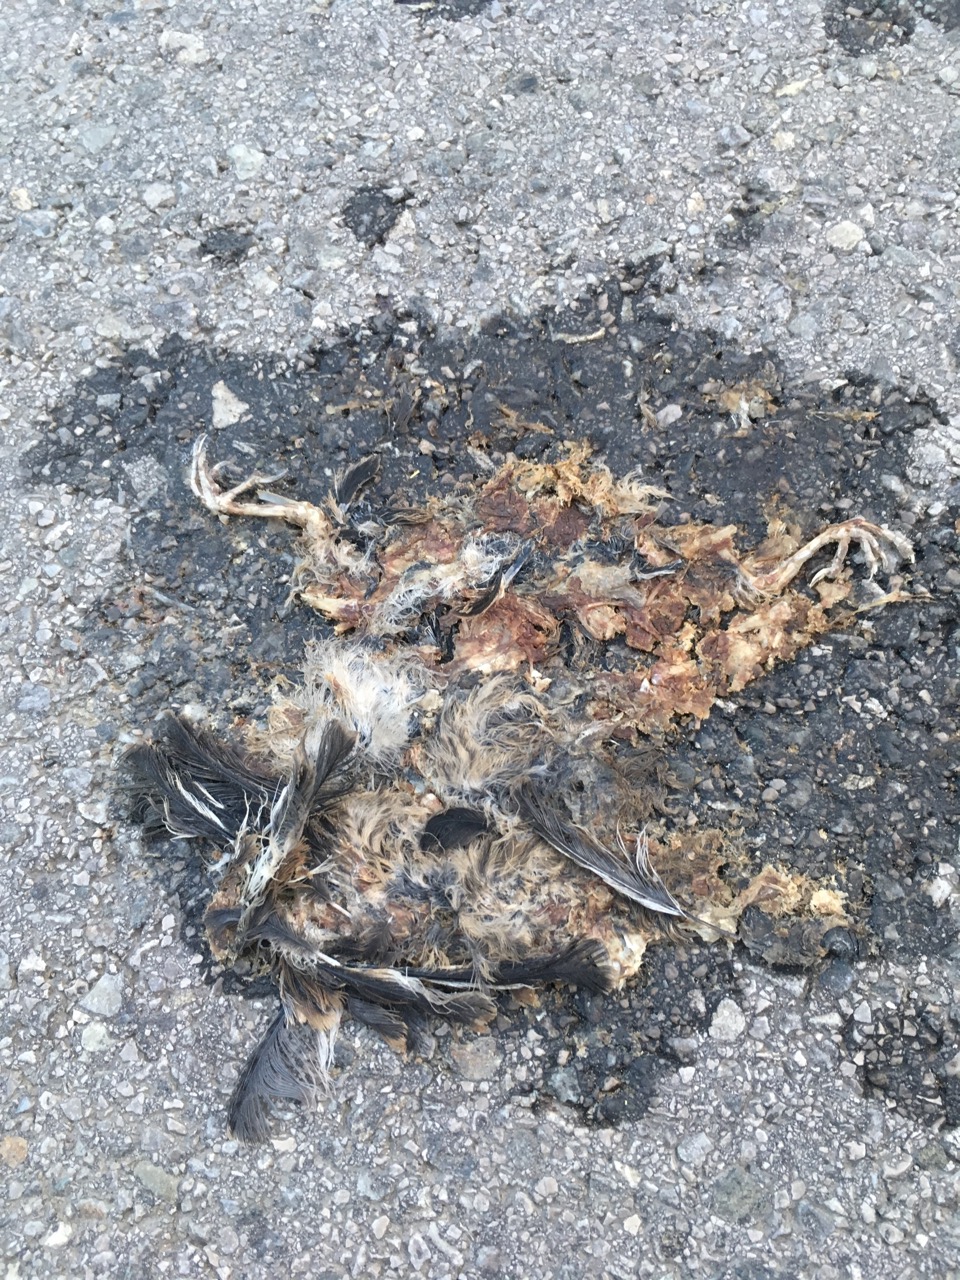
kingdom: Animalia
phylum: Chordata
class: Aves
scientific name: Aves
